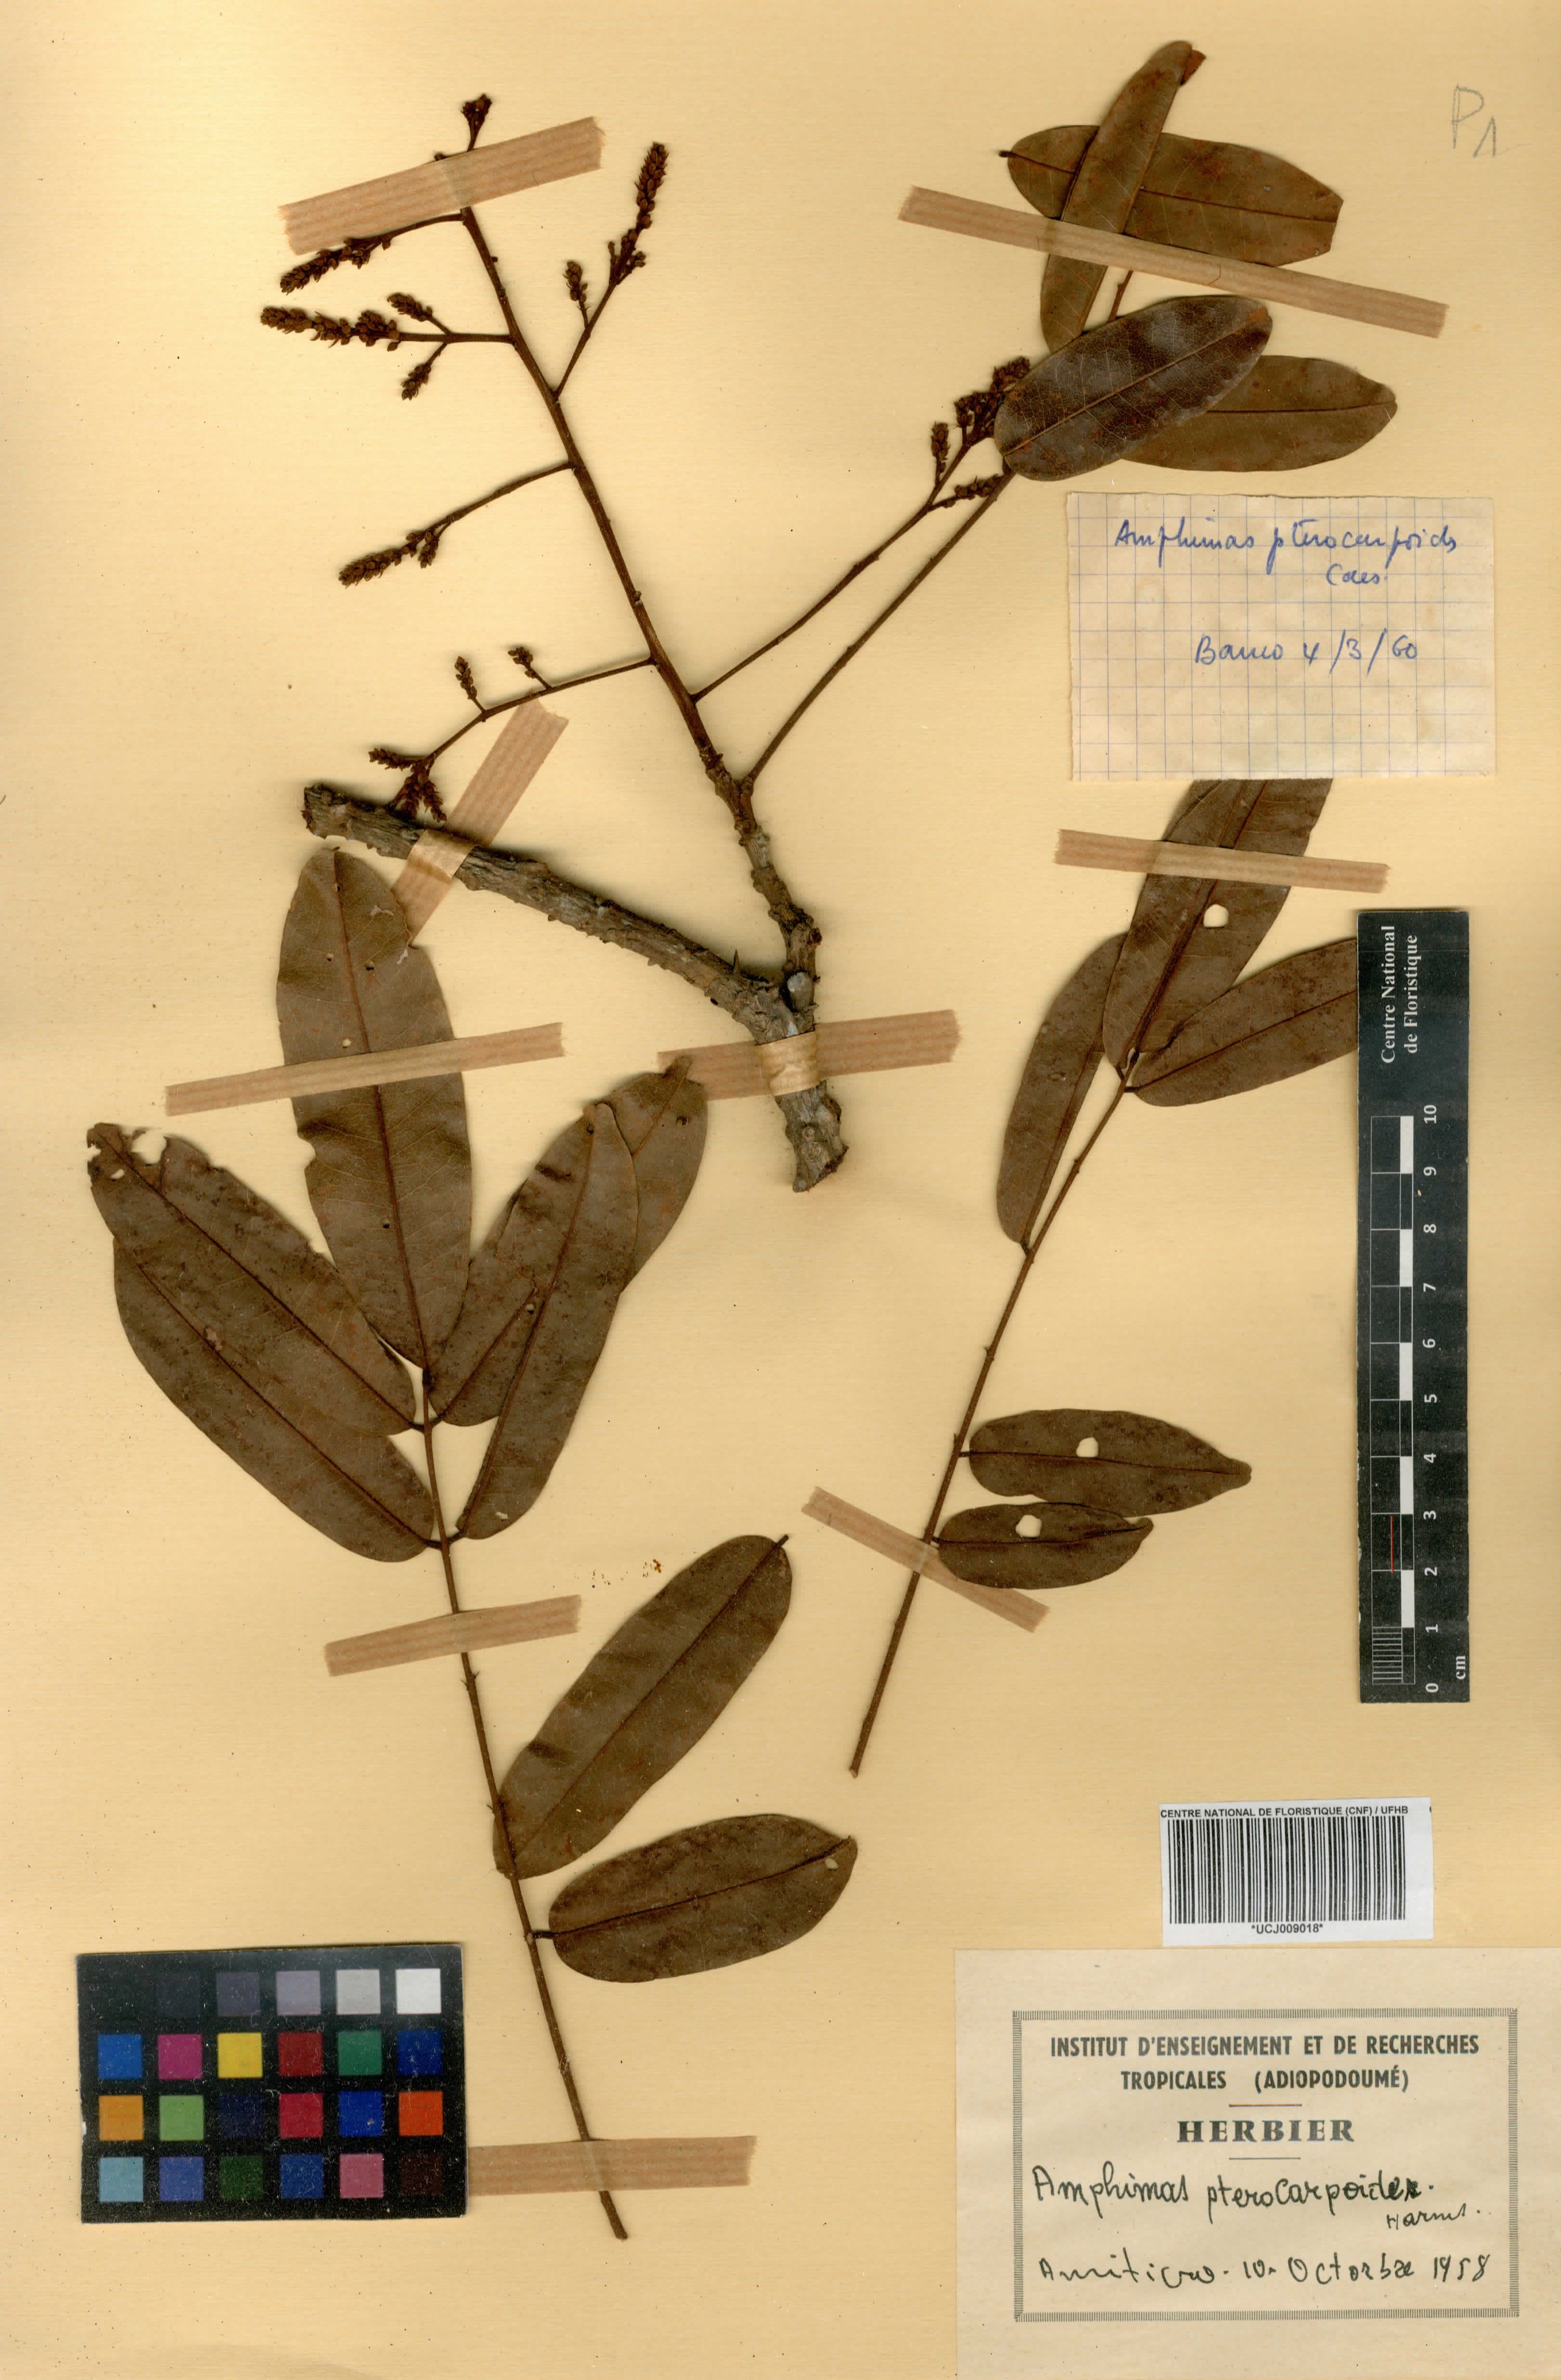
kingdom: Plantae
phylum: Tracheophyta
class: Magnoliopsida
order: Fabales
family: Fabaceae
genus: Amphimas
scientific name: Amphimas pterocarpoides
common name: Bokanga
